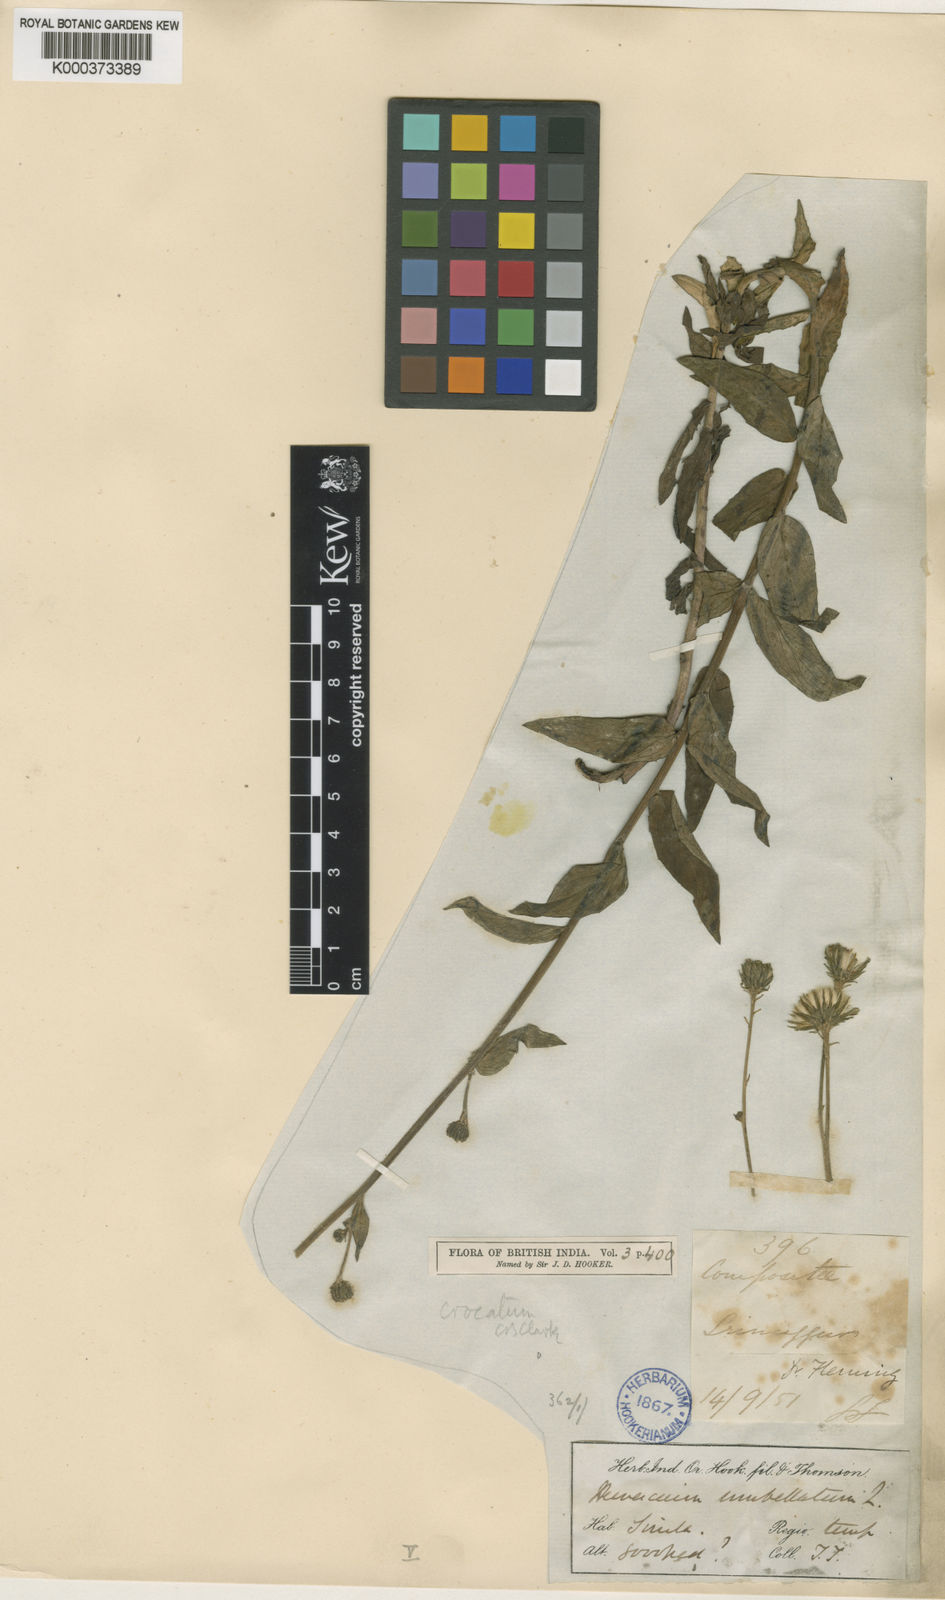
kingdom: Plantae
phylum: Tracheophyta
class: Magnoliopsida
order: Asterales
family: Asteraceae
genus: Hieracium
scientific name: Hieracium umbellatum
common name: Northern hawkweed
